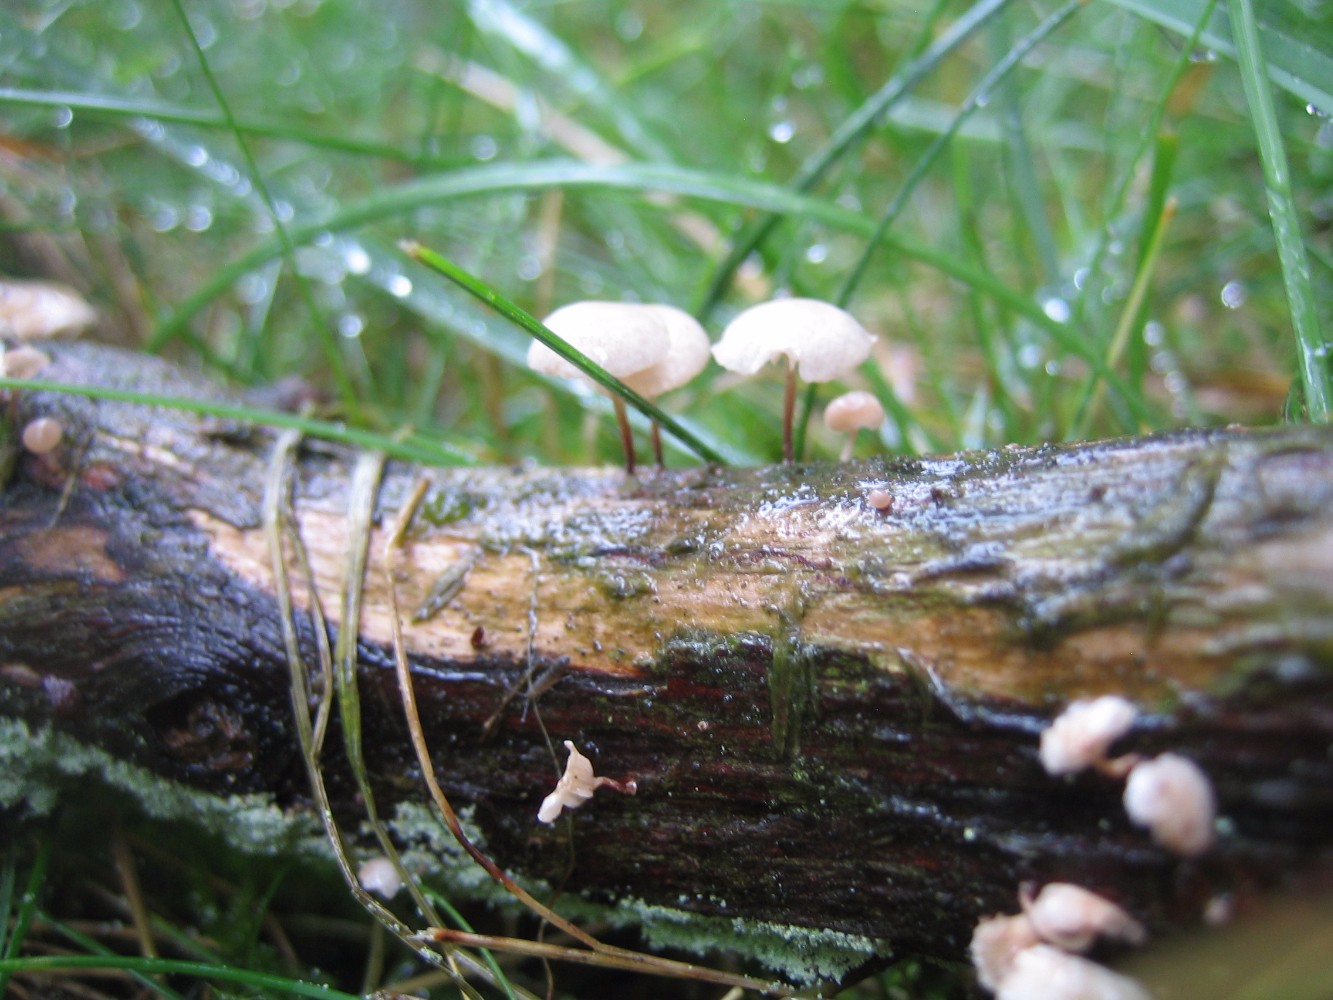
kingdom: Fungi
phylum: Basidiomycota
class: Agaricomycetes
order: Agaricales
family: Omphalotaceae
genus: Collybiopsis
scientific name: Collybiopsis ramealis
